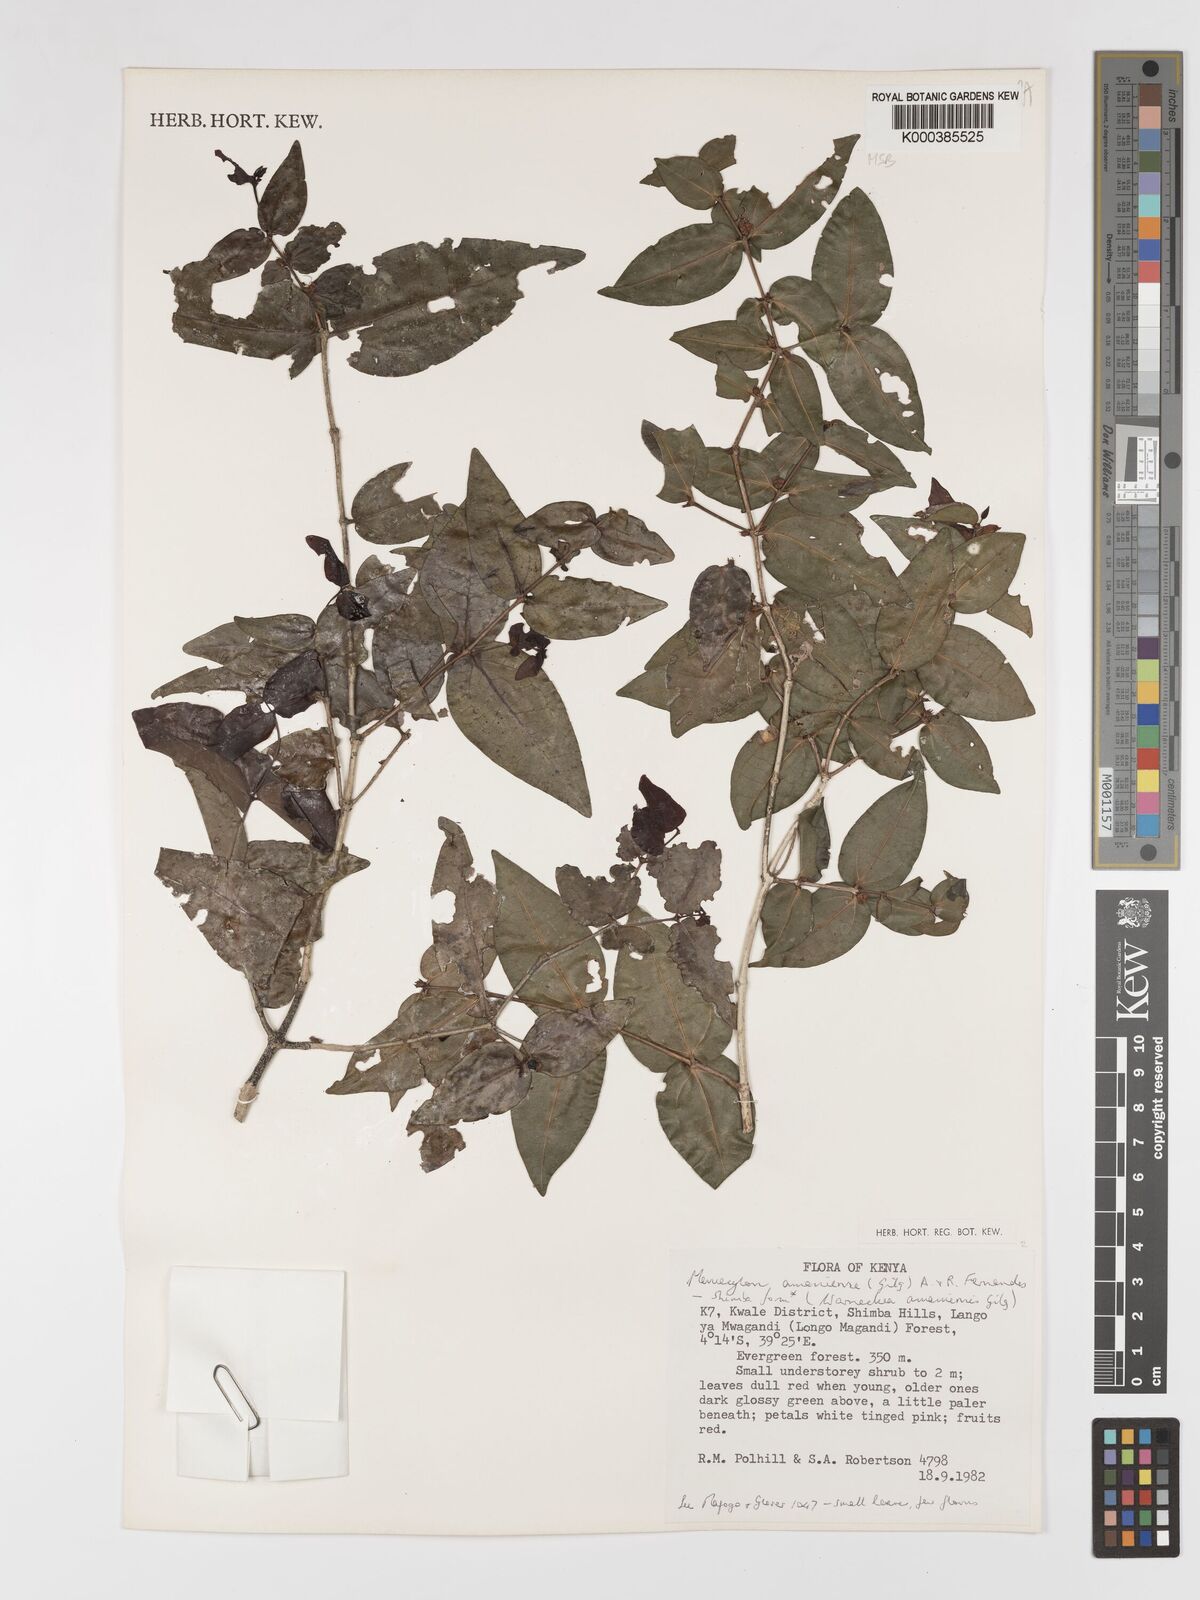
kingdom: Plantae
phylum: Tracheophyta
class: Magnoliopsida
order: Myrtales
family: Melastomataceae
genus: Warneckea
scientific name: Warneckea amaniensis
